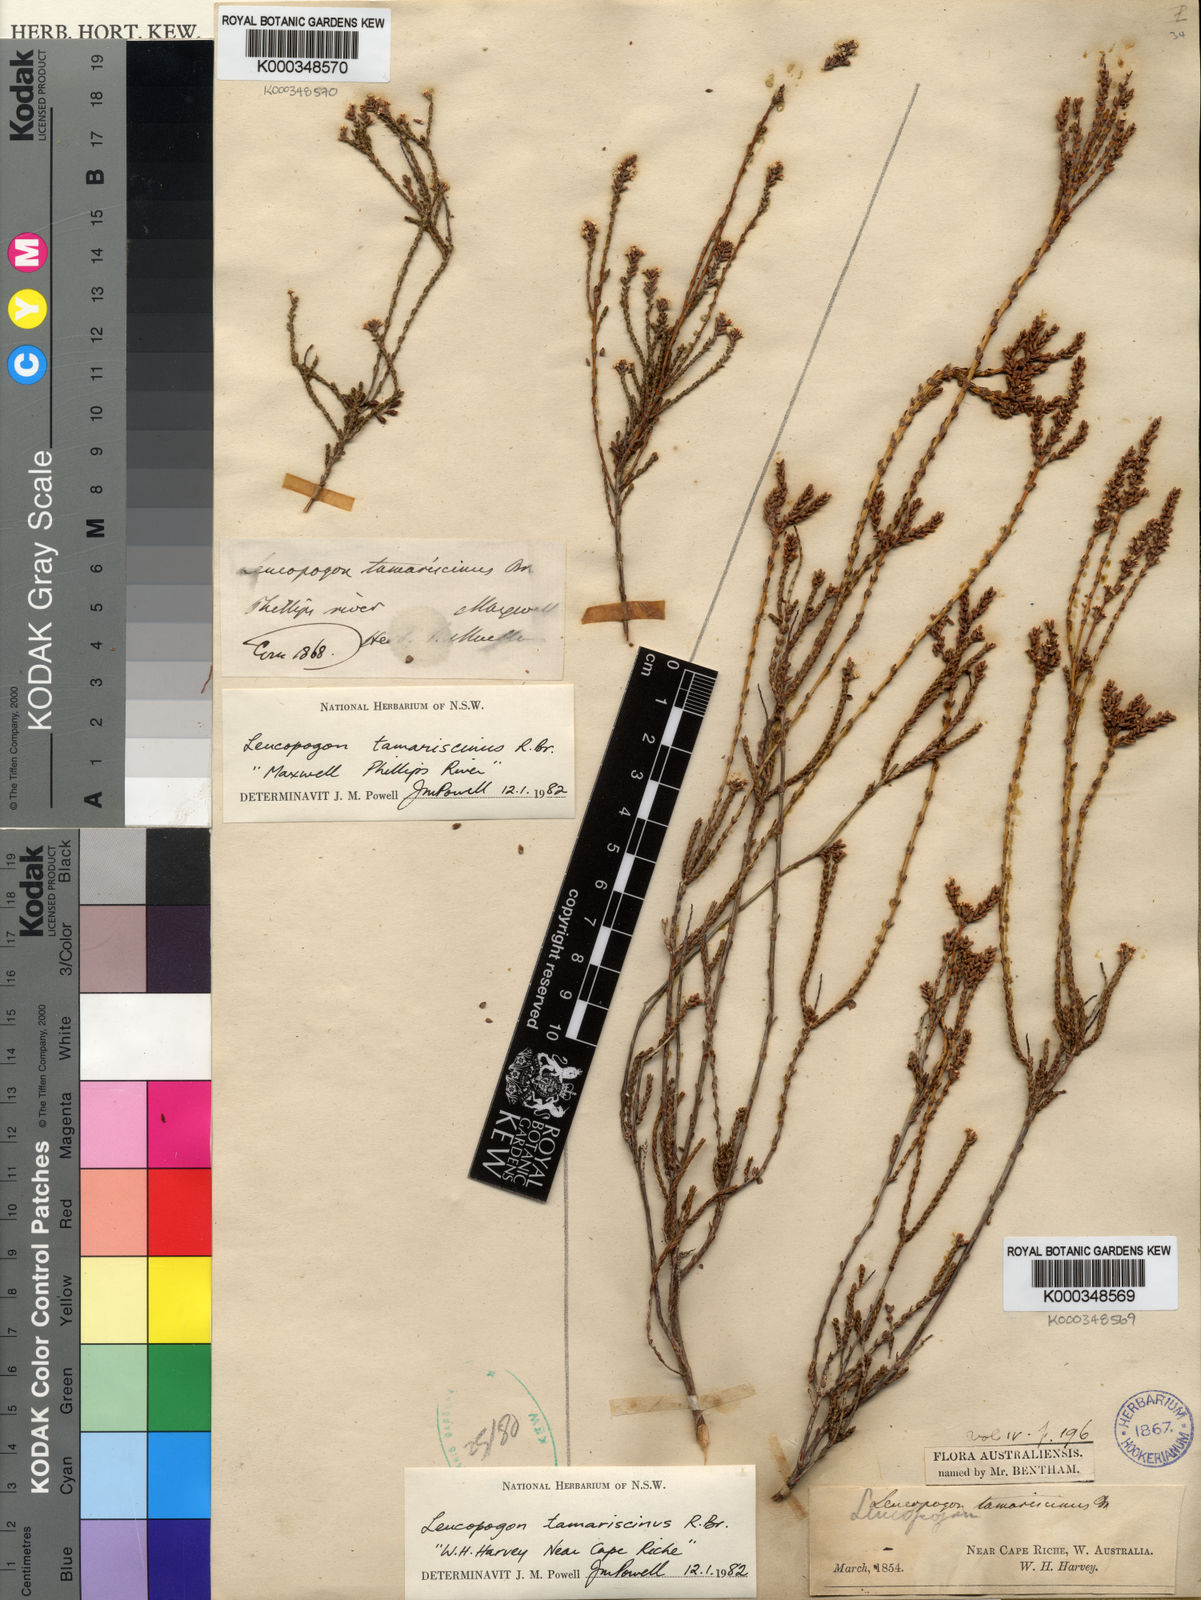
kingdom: Plantae
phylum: Tracheophyta
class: Magnoliopsida
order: Ericales
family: Ericaceae
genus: Leucopogon
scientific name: Leucopogon tamariscinus
